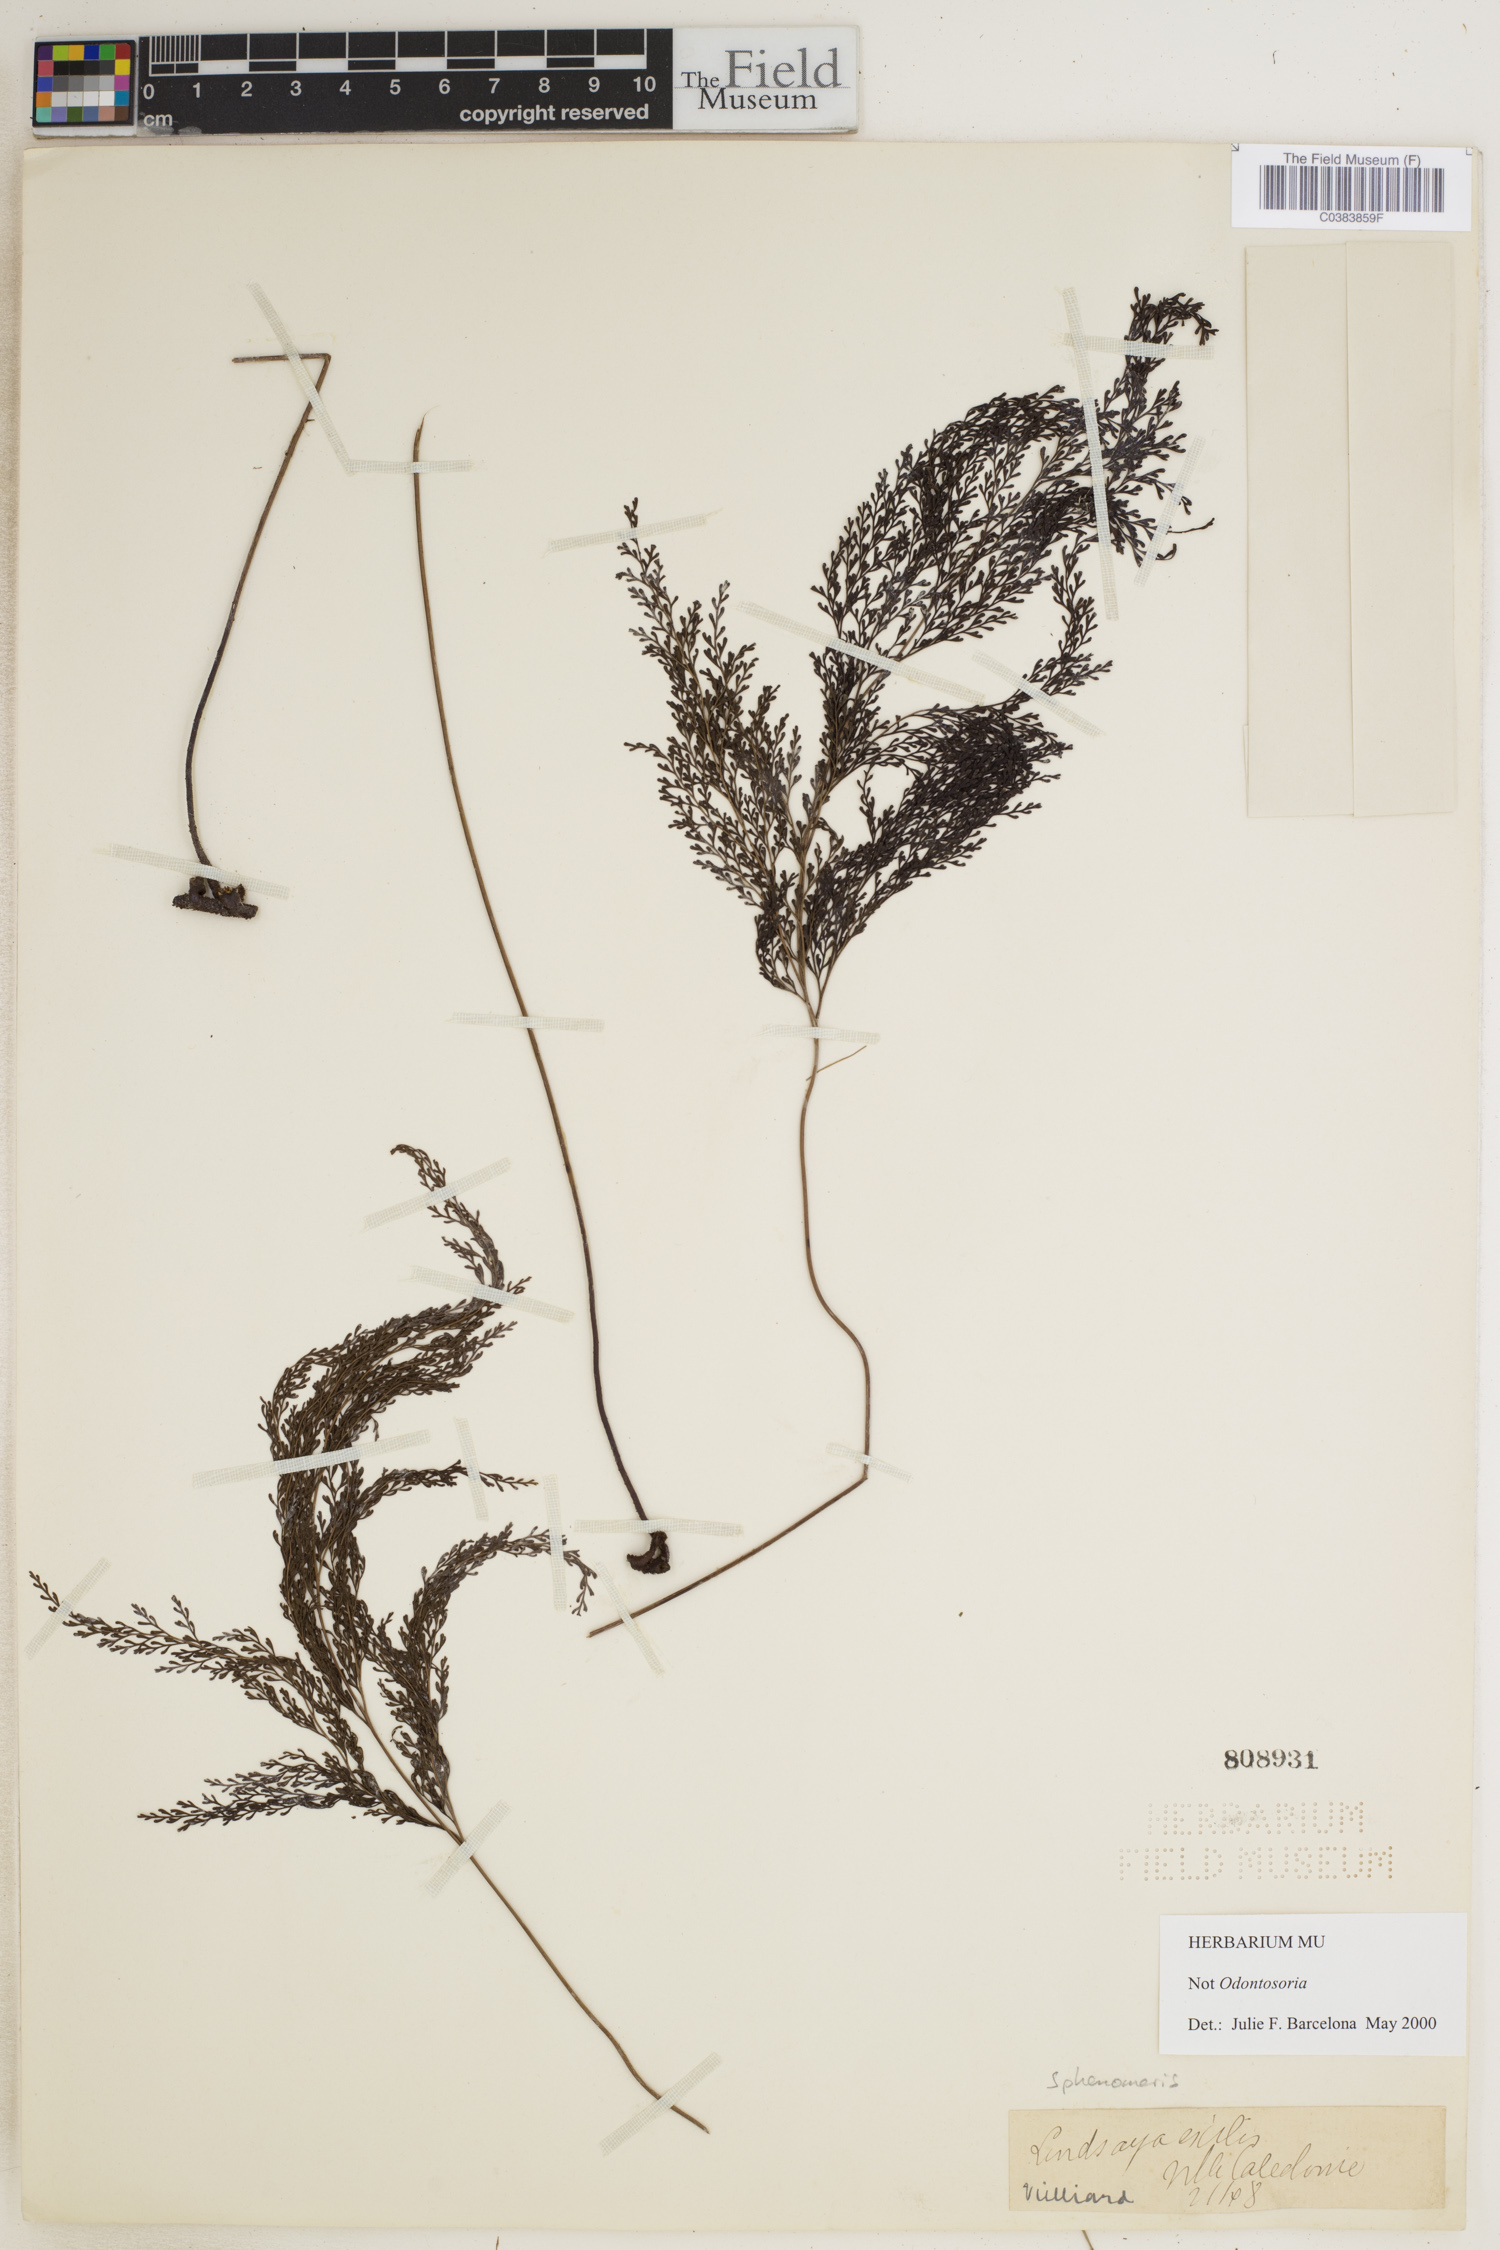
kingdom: Plantae
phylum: Tracheophyta
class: Polypodiopsida
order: Polypodiales
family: Lindsaeaceae
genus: Sphenomeris
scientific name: Sphenomeris
